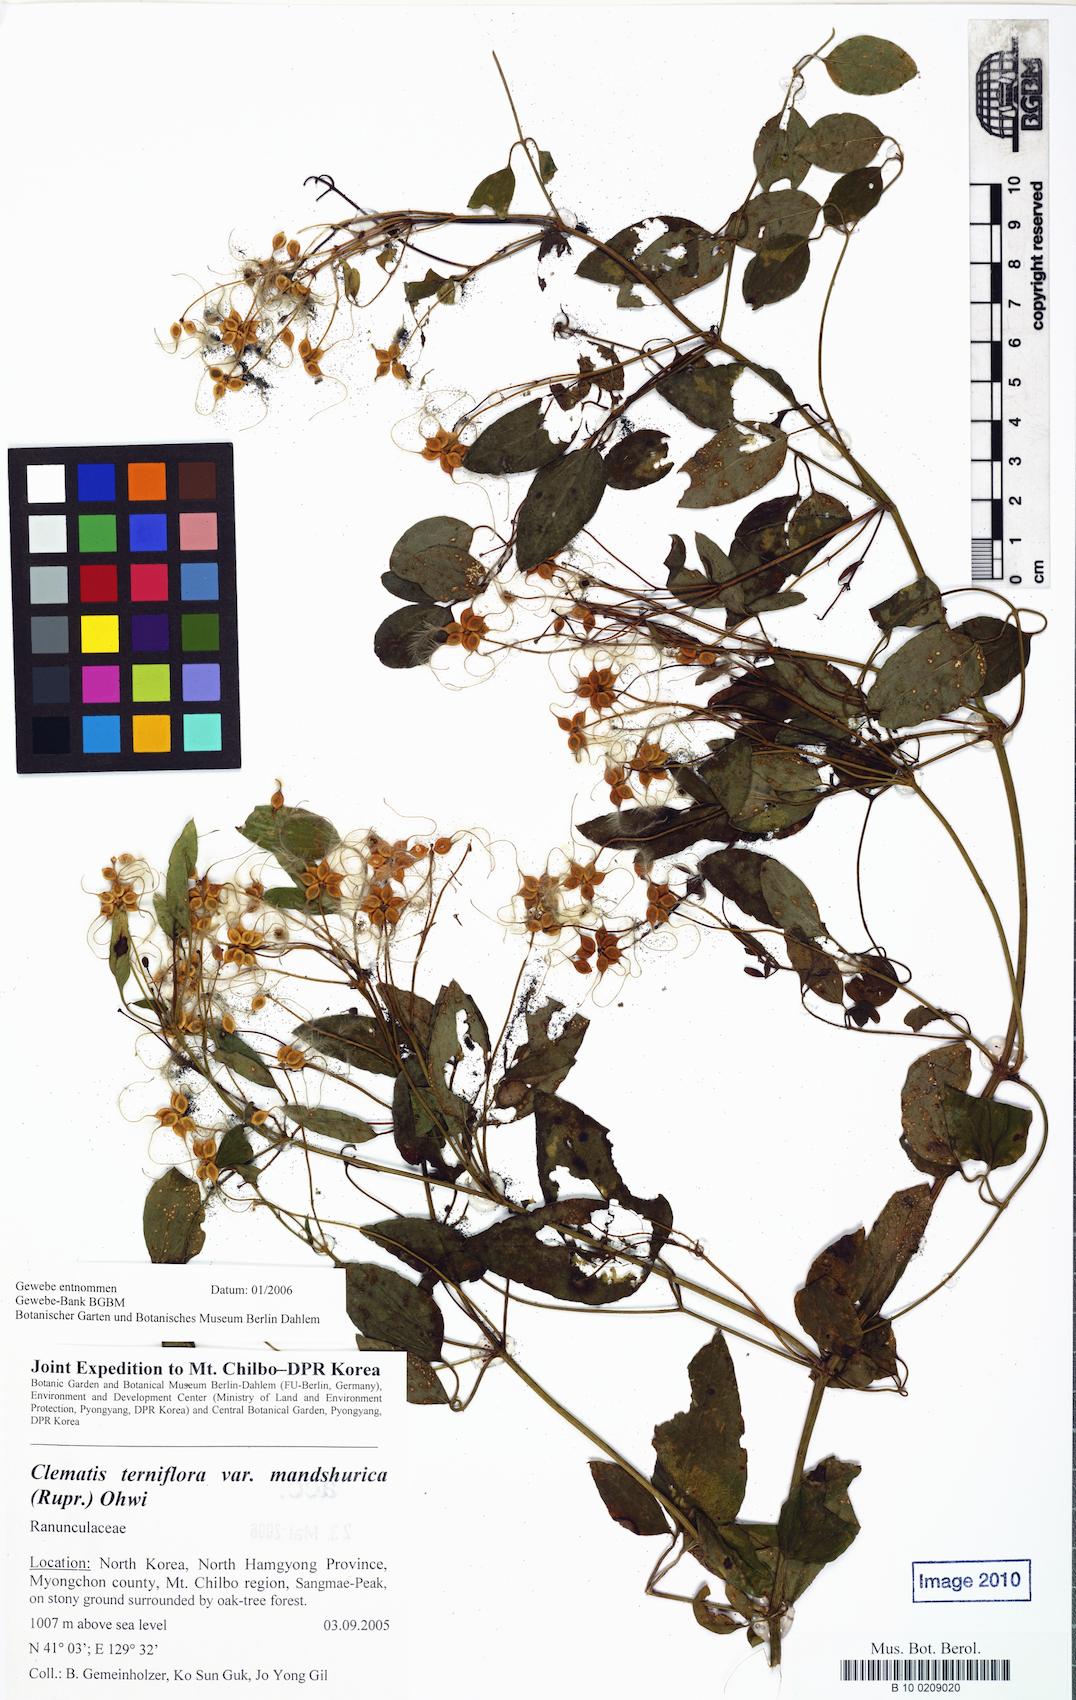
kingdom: Plantae
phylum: Tracheophyta
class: Magnoliopsida
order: Ranunculales
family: Ranunculaceae
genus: Clematis
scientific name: Clematis terniflora
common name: Sweet autumn clematis
